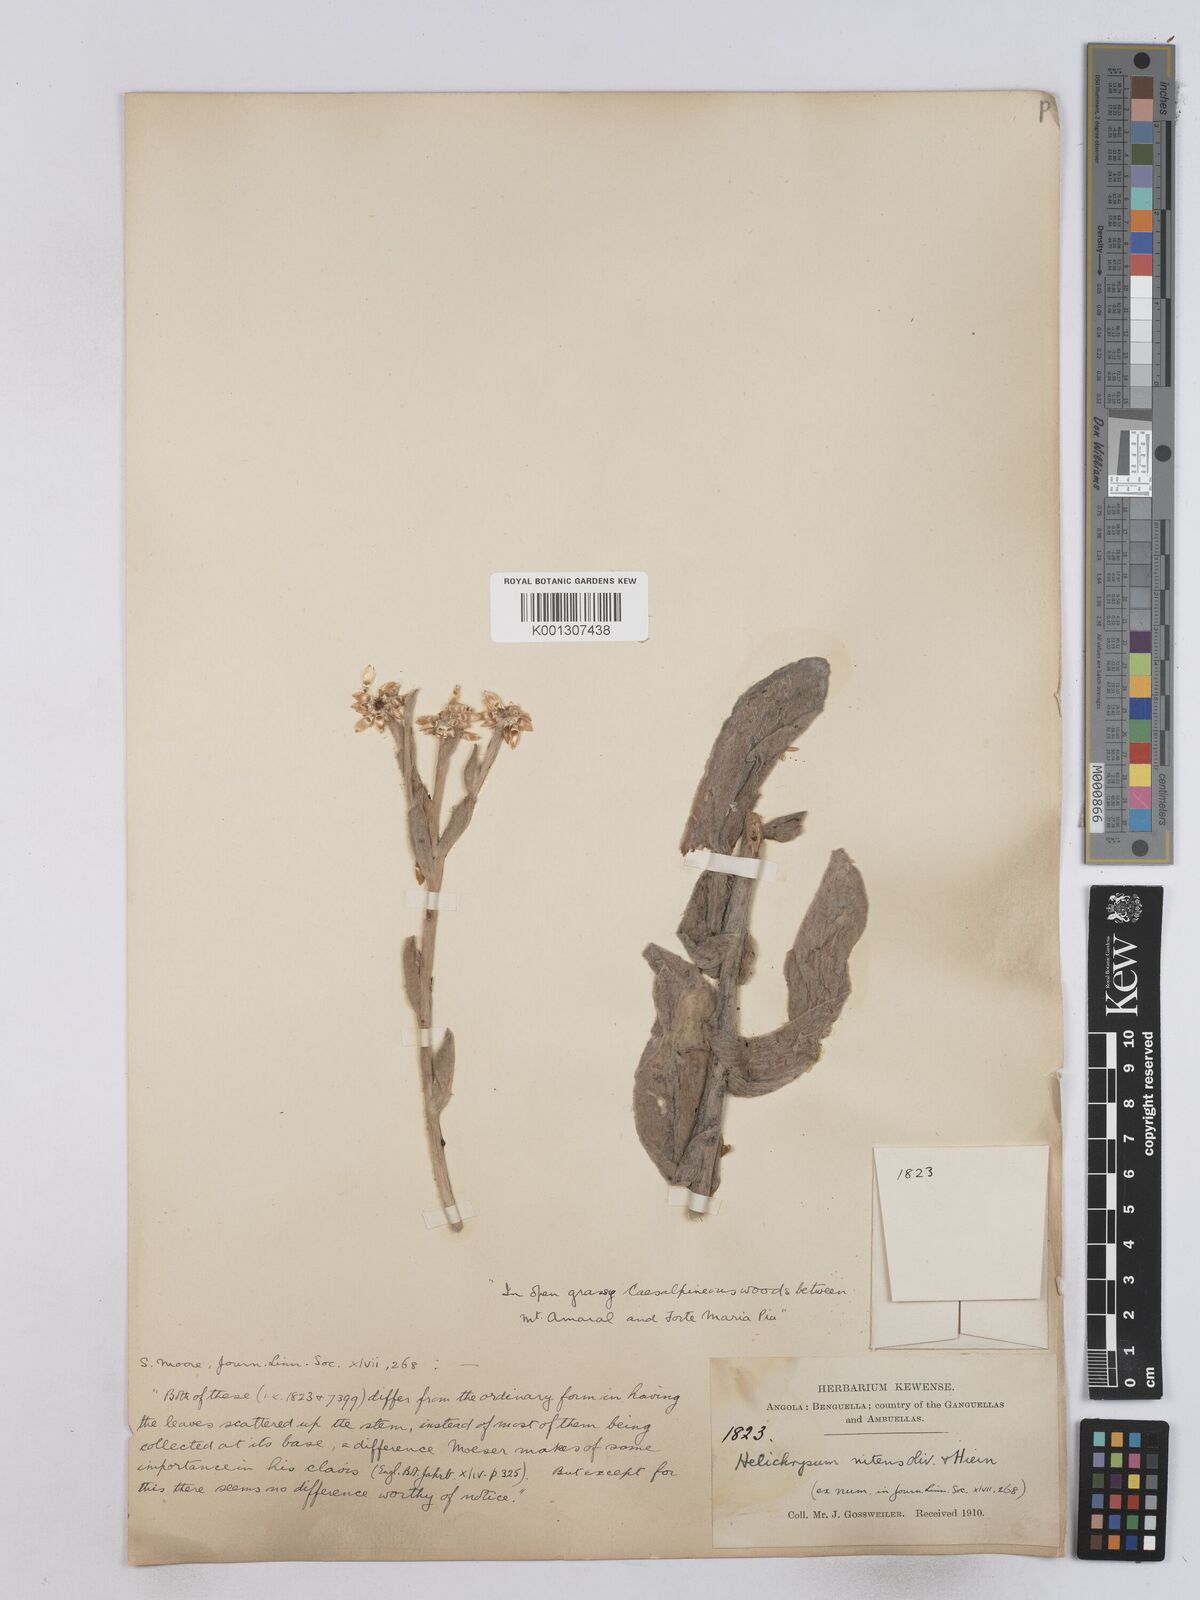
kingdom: Plantae
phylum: Tracheophyta
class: Magnoliopsida
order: Asterales
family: Asteraceae
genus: Helichrysum
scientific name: Helichrysum nitens
